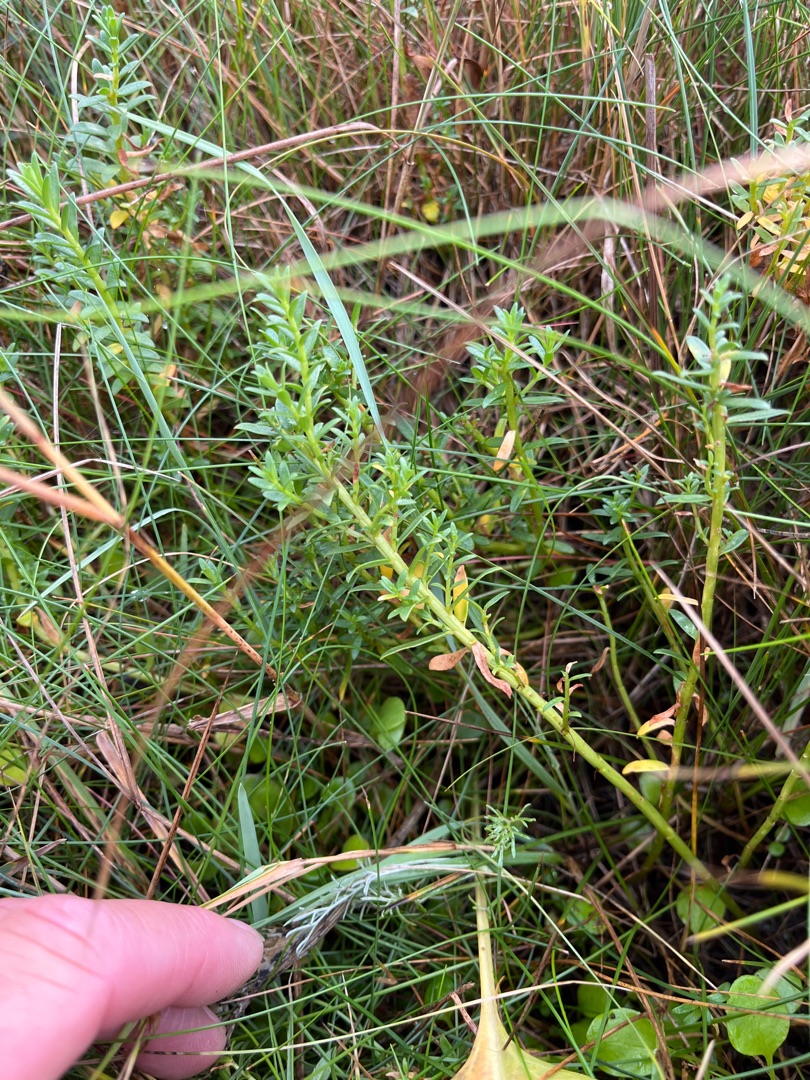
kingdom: Plantae
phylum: Tracheophyta
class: Magnoliopsida
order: Ericales
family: Primulaceae
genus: Lysimachia
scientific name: Lysimachia maritima
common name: Sandkryb
